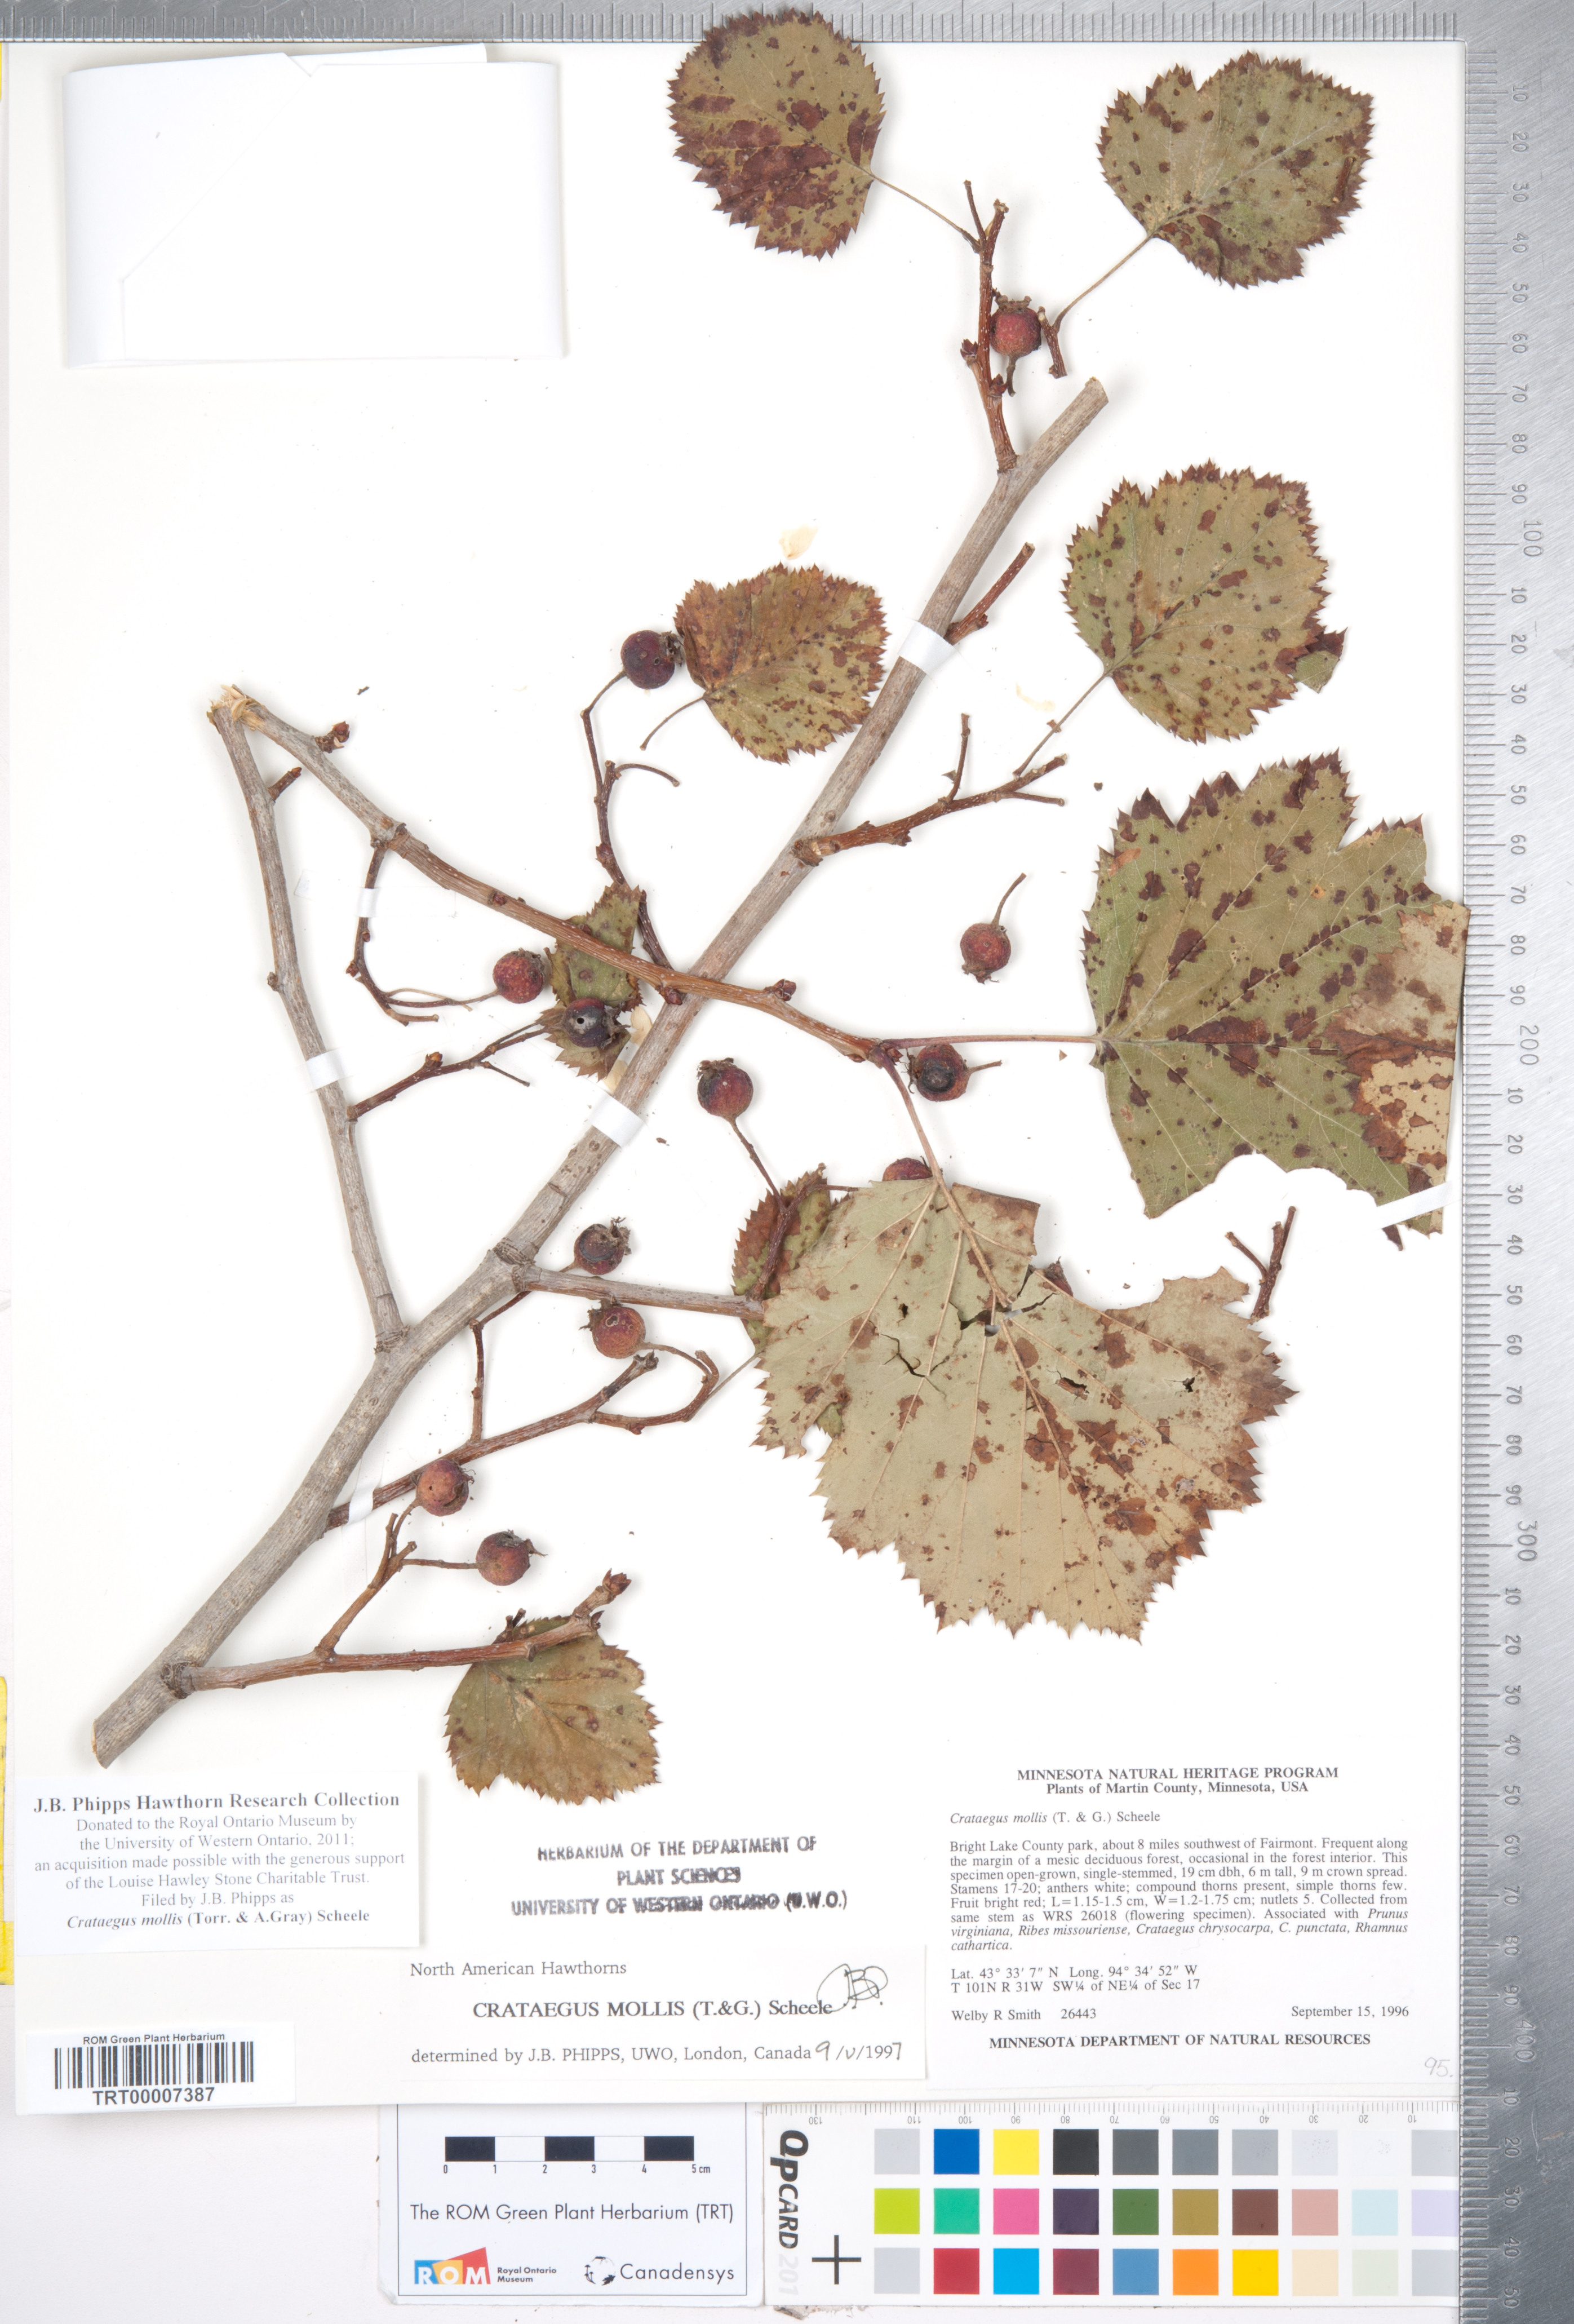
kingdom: Plantae
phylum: Tracheophyta
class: Magnoliopsida
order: Rosales
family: Rosaceae
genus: Crataegus
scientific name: Crataegus mollis
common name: Downy hawthorn
